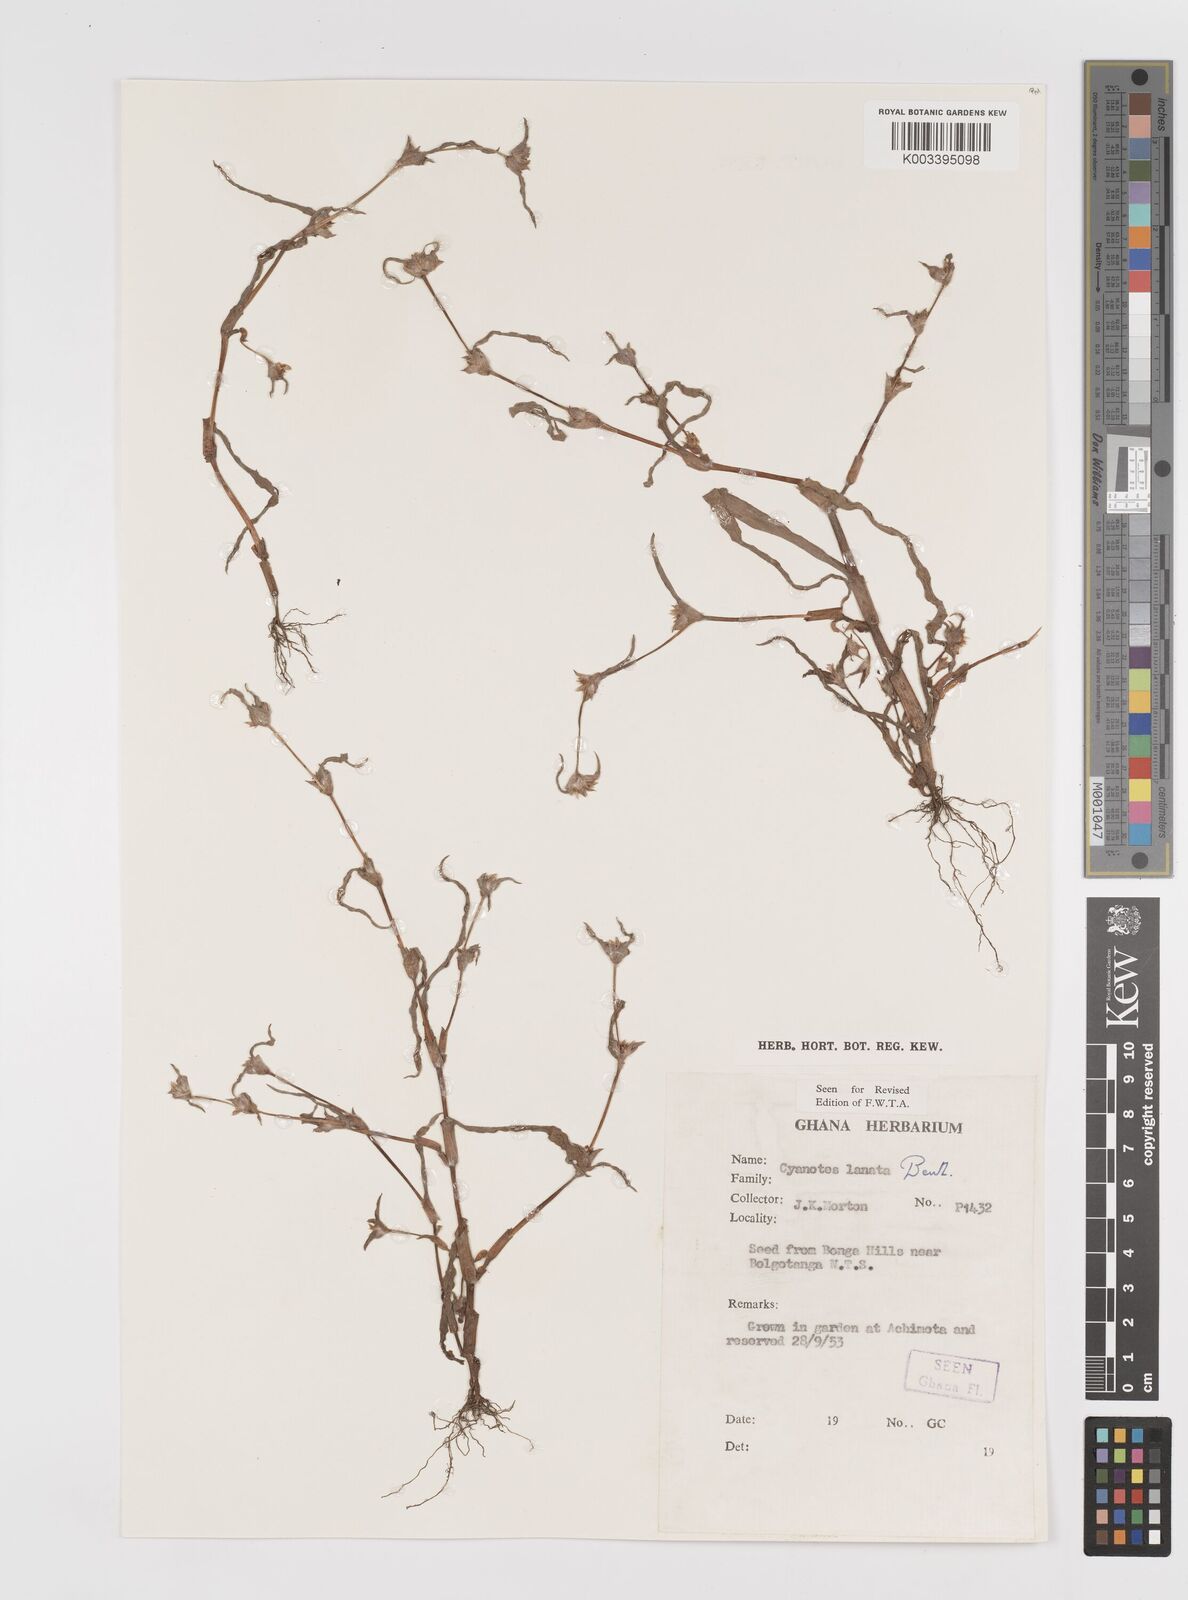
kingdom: Plantae
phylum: Tracheophyta
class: Liliopsida
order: Commelinales
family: Commelinaceae
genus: Cyanotis
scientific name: Cyanotis lanata
